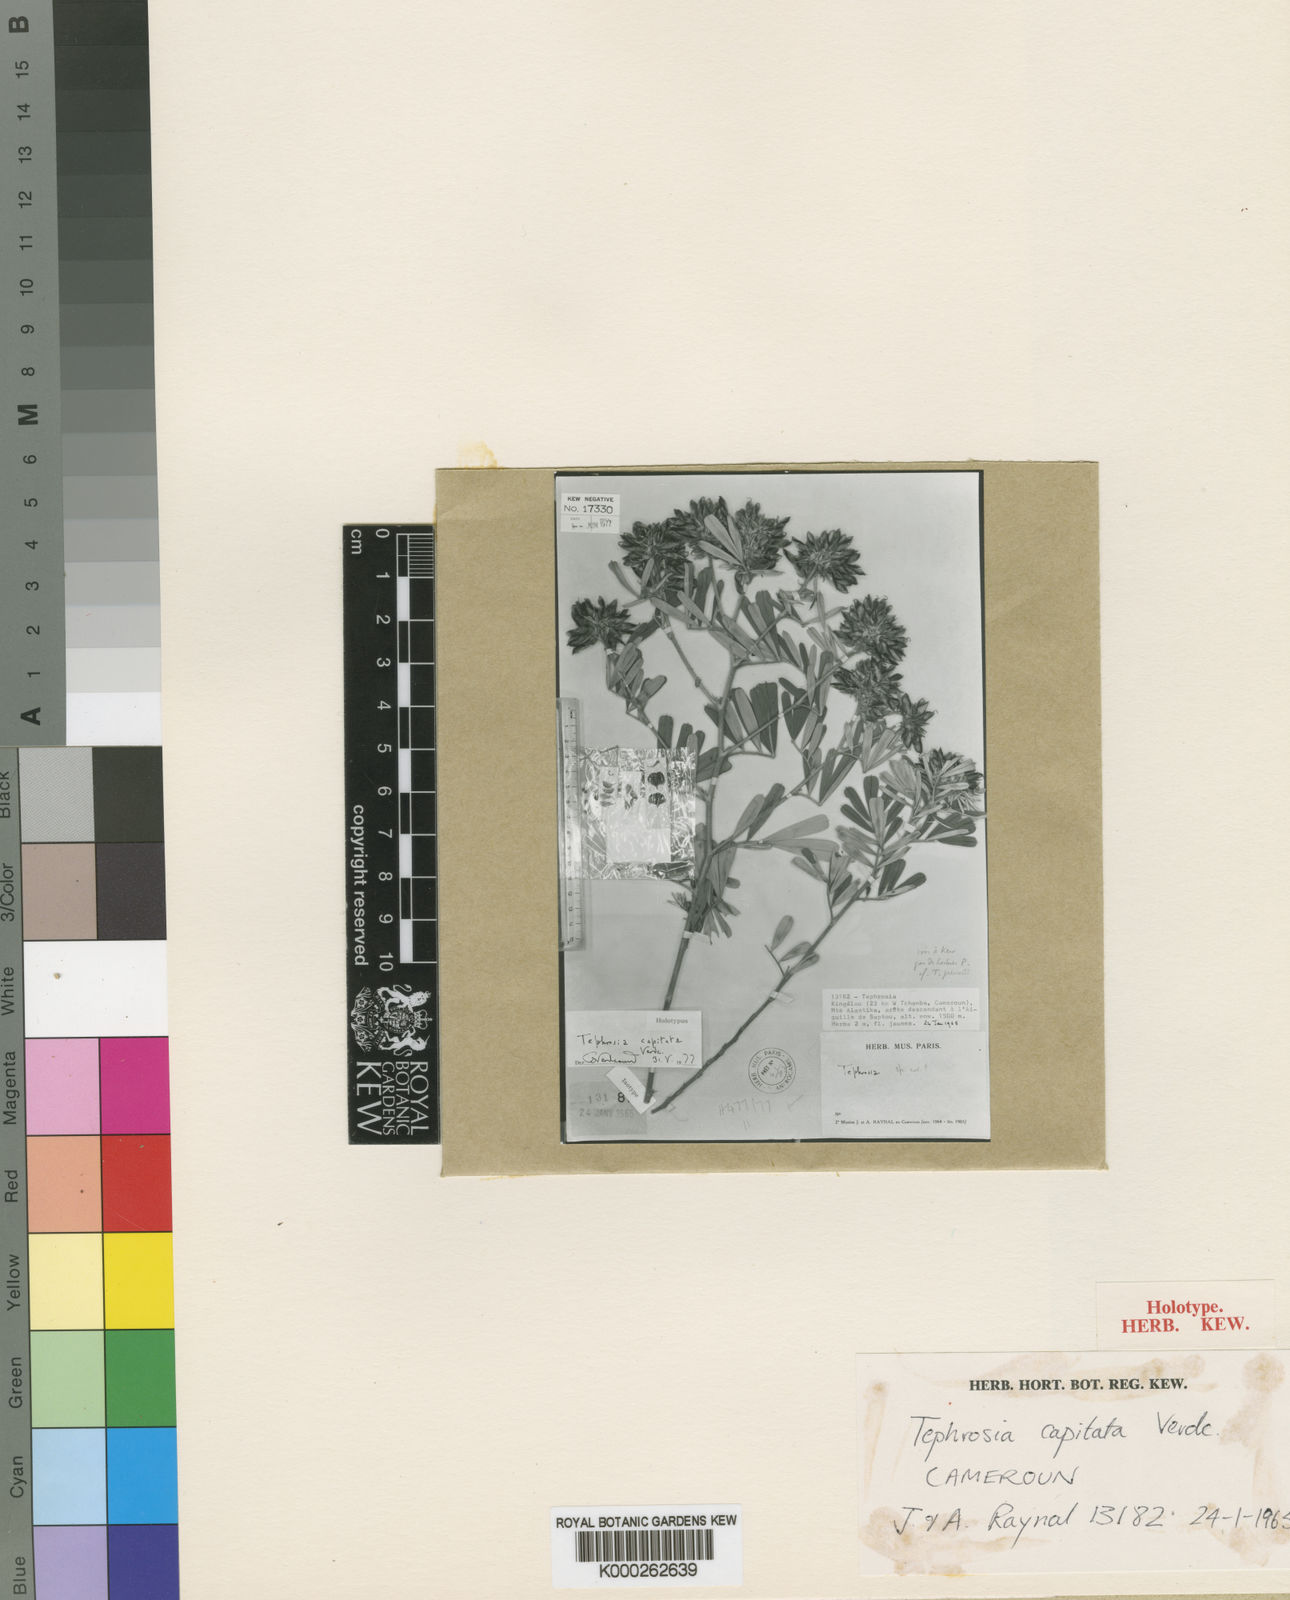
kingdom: Plantae
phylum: Tracheophyta
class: Magnoliopsida
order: Fabales
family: Fabaceae
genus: Tephrosia
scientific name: Tephrosia capitata
